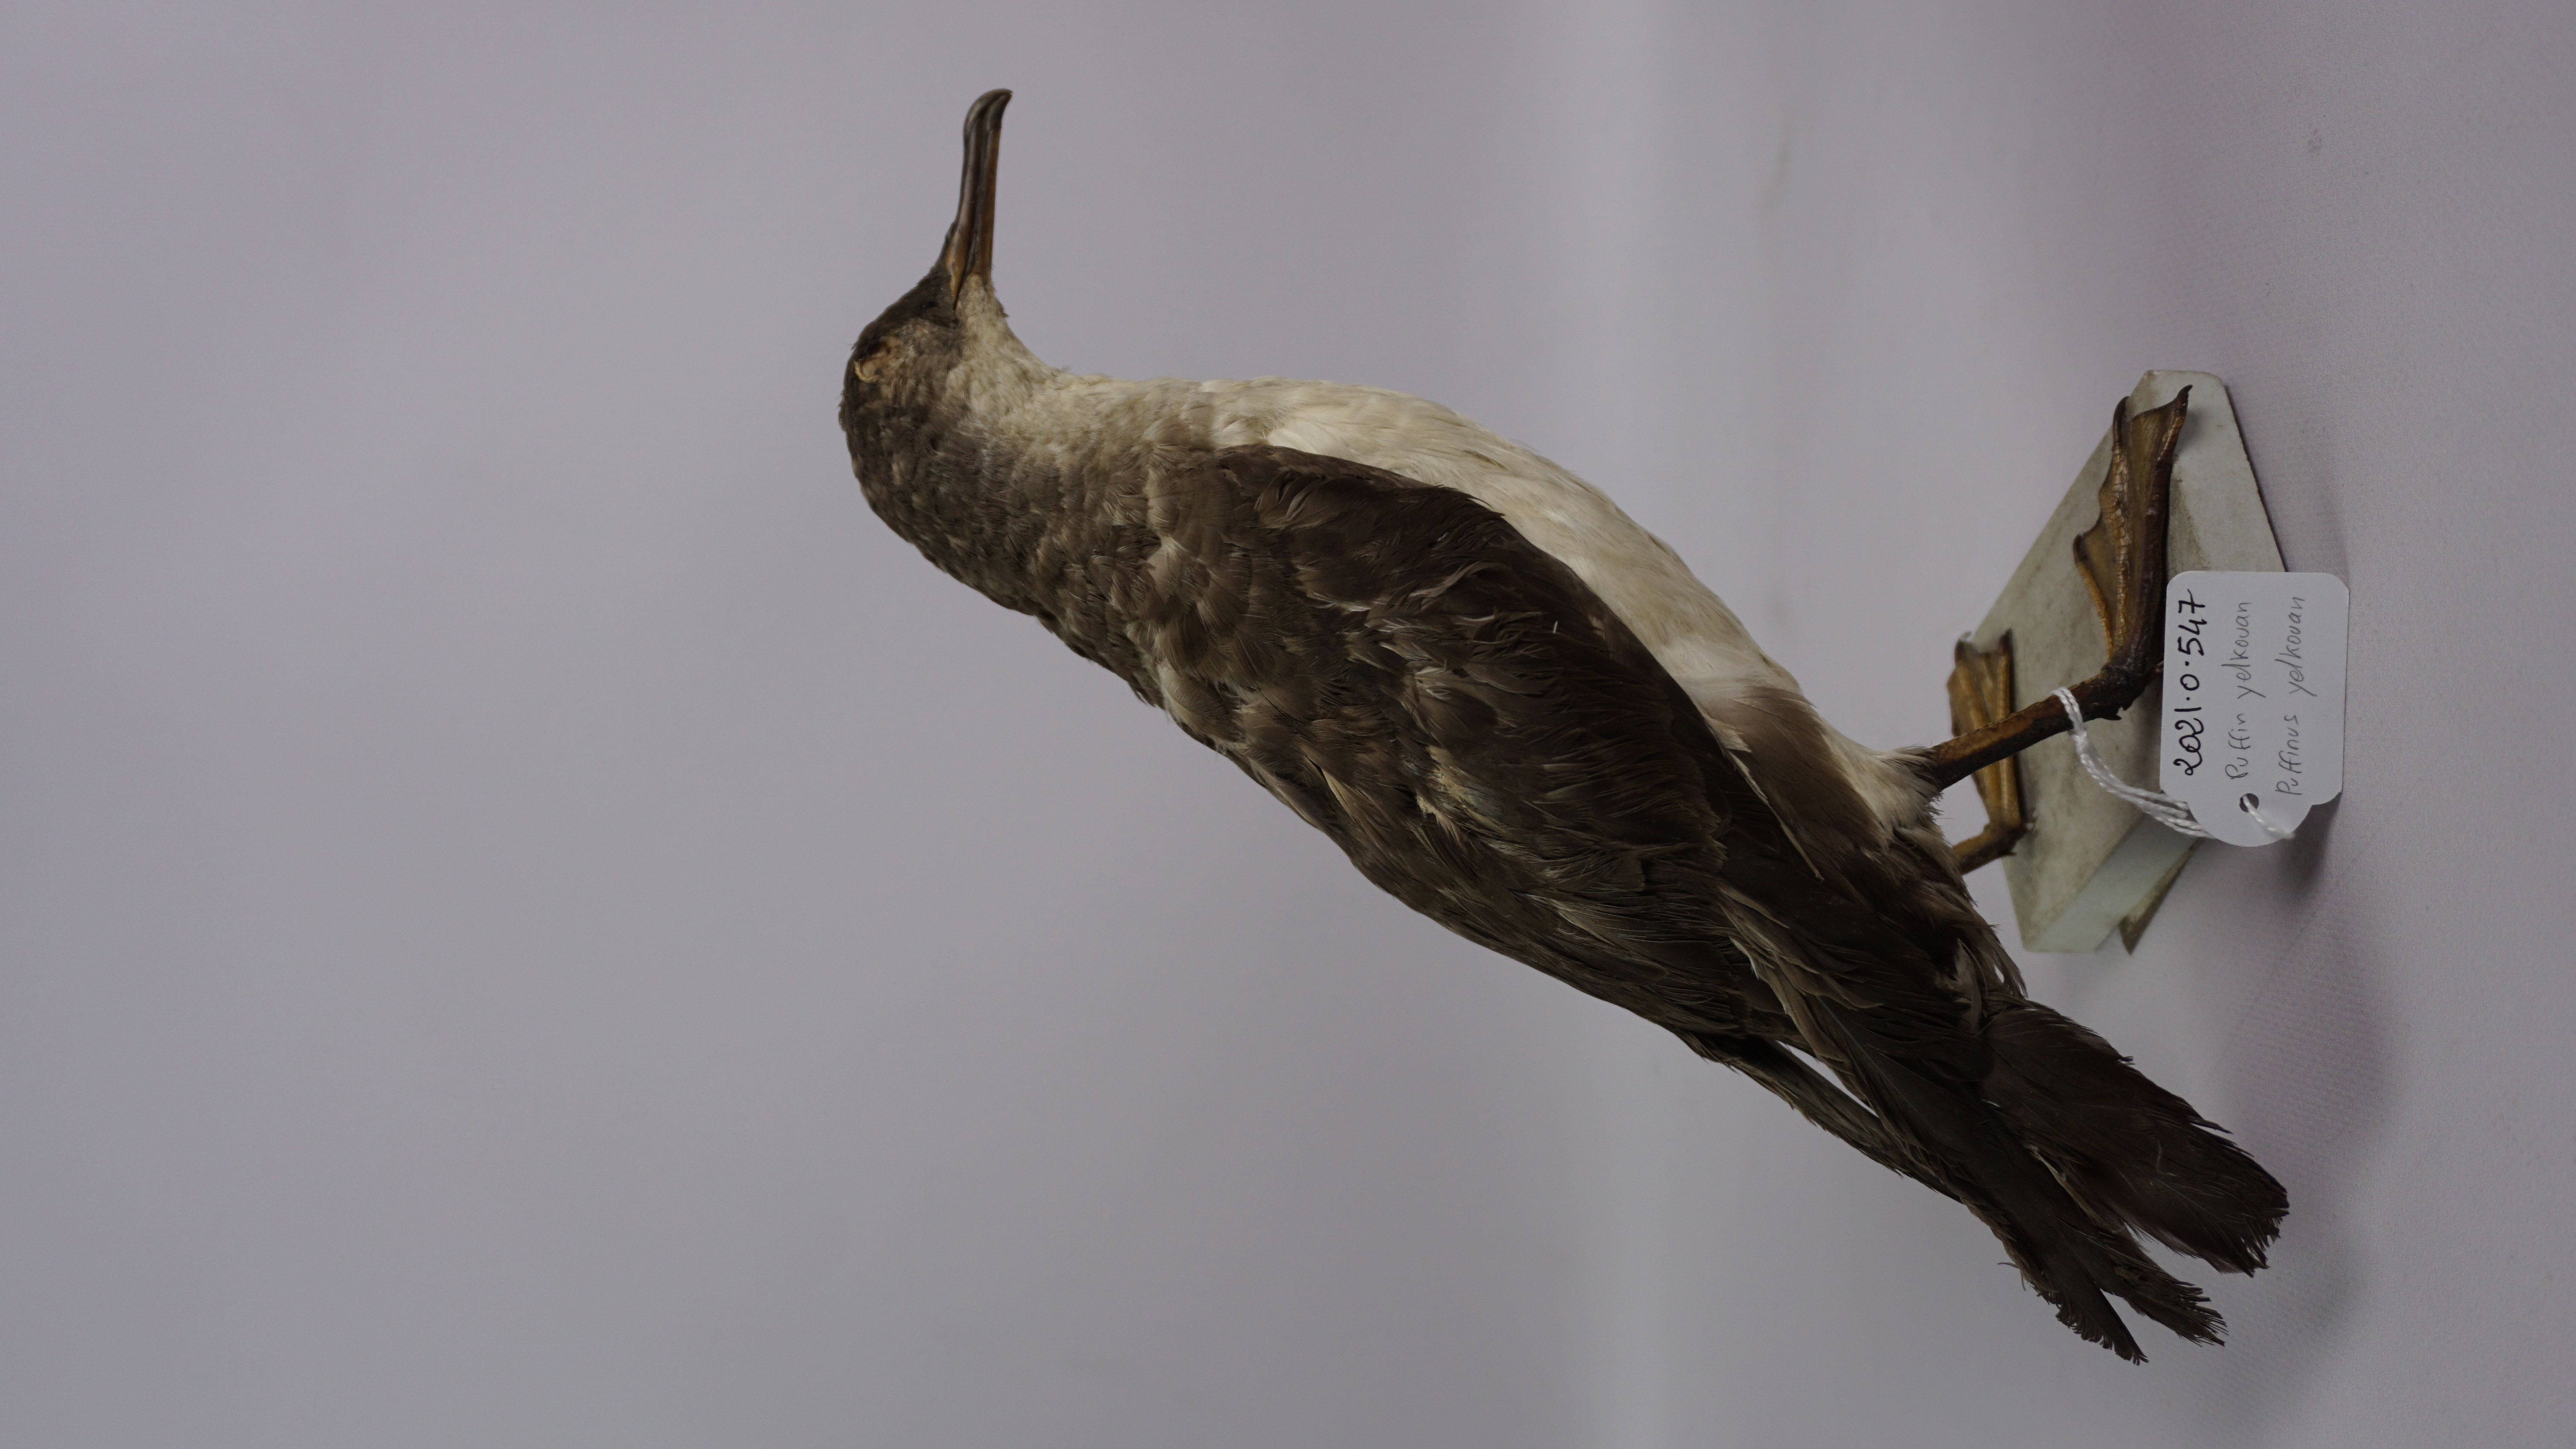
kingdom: Animalia
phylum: Chordata
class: Aves
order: Procellariiformes
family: Procellariidae
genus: Puffinus
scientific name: Puffinus yelkouan
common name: Yelkouan shearwater
